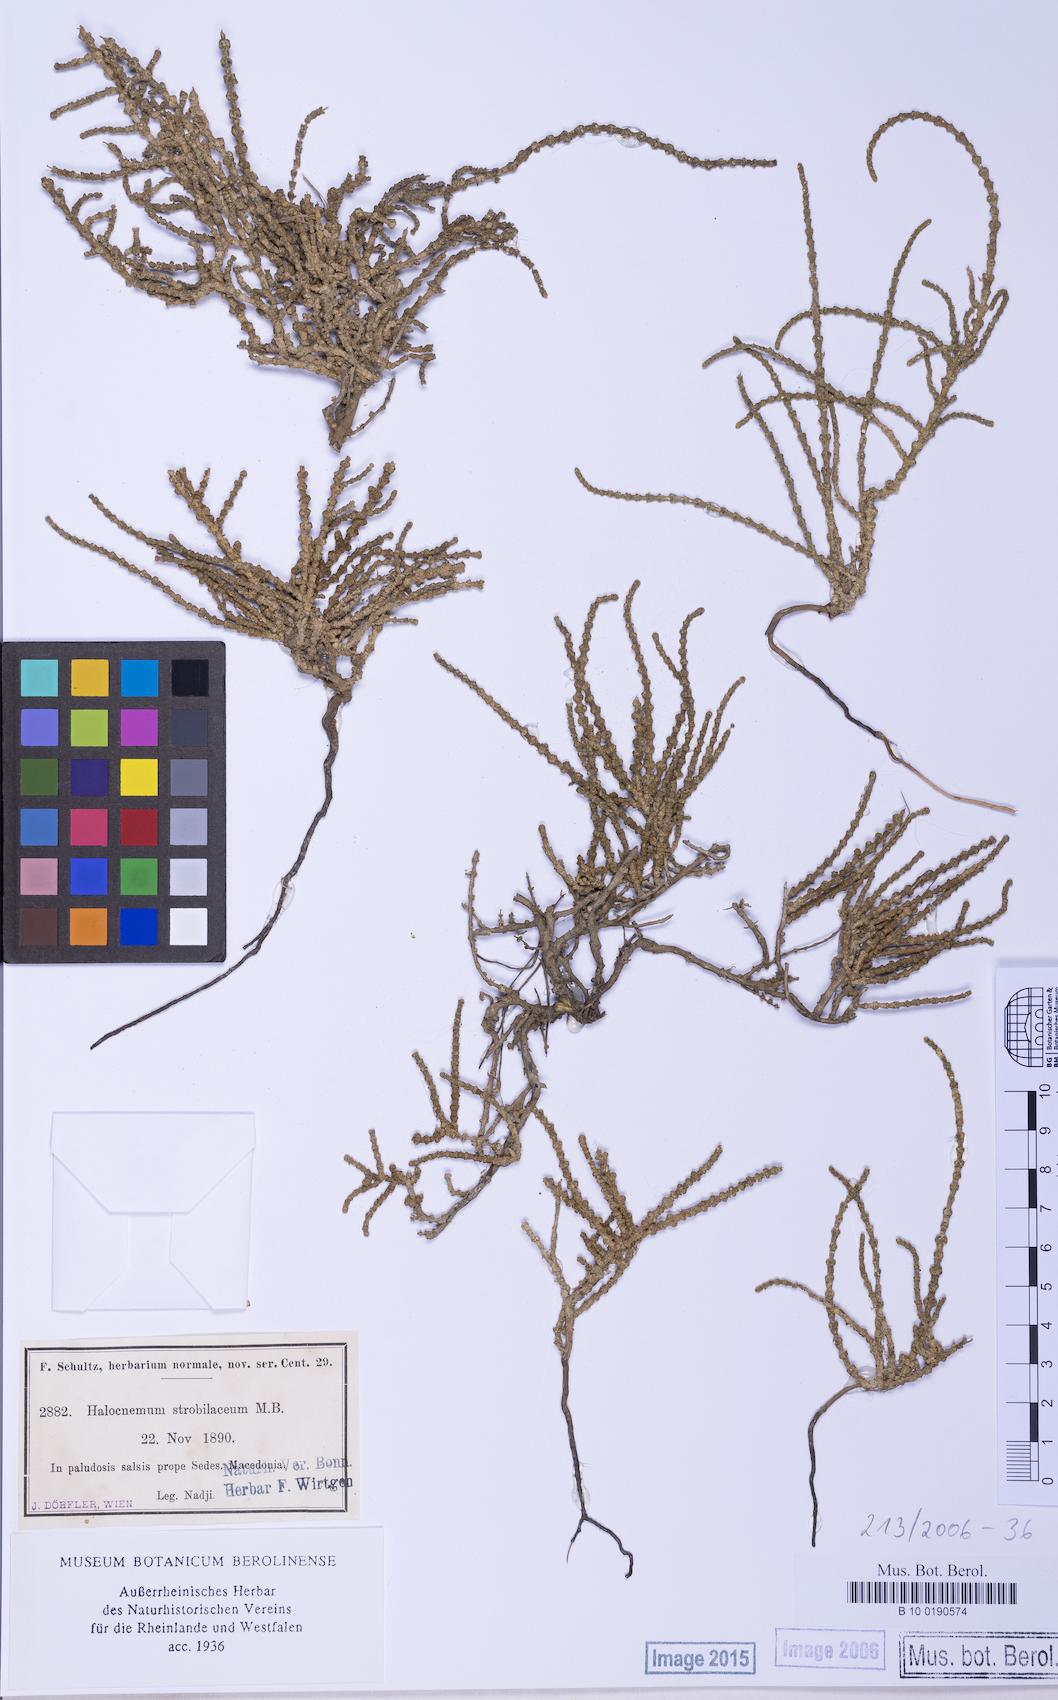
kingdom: Plantae
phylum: Tracheophyta
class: Magnoliopsida
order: Caryophyllales
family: Amaranthaceae
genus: Halocnemum
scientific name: Halocnemum strobilaceum
